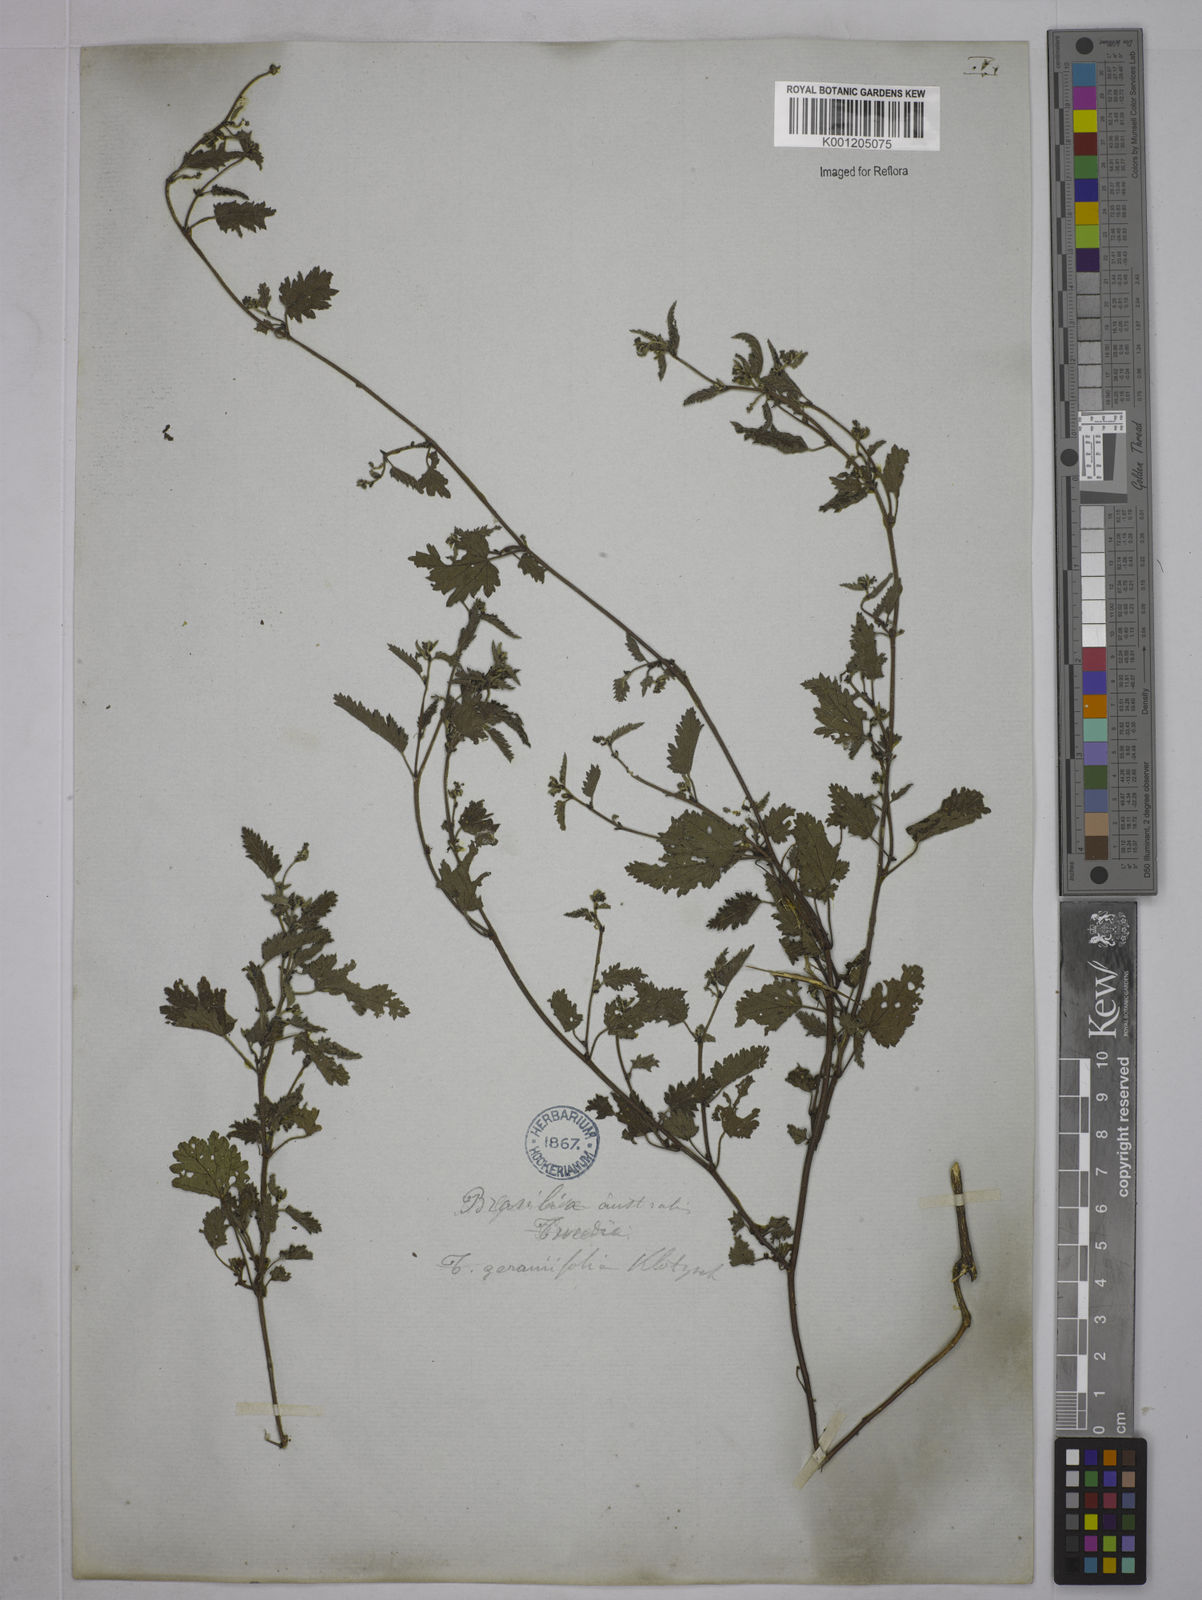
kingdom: Plantae
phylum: Tracheophyta
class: Magnoliopsida
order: Malpighiales
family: Euphorbiaceae
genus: Tragia
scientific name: Tragia
